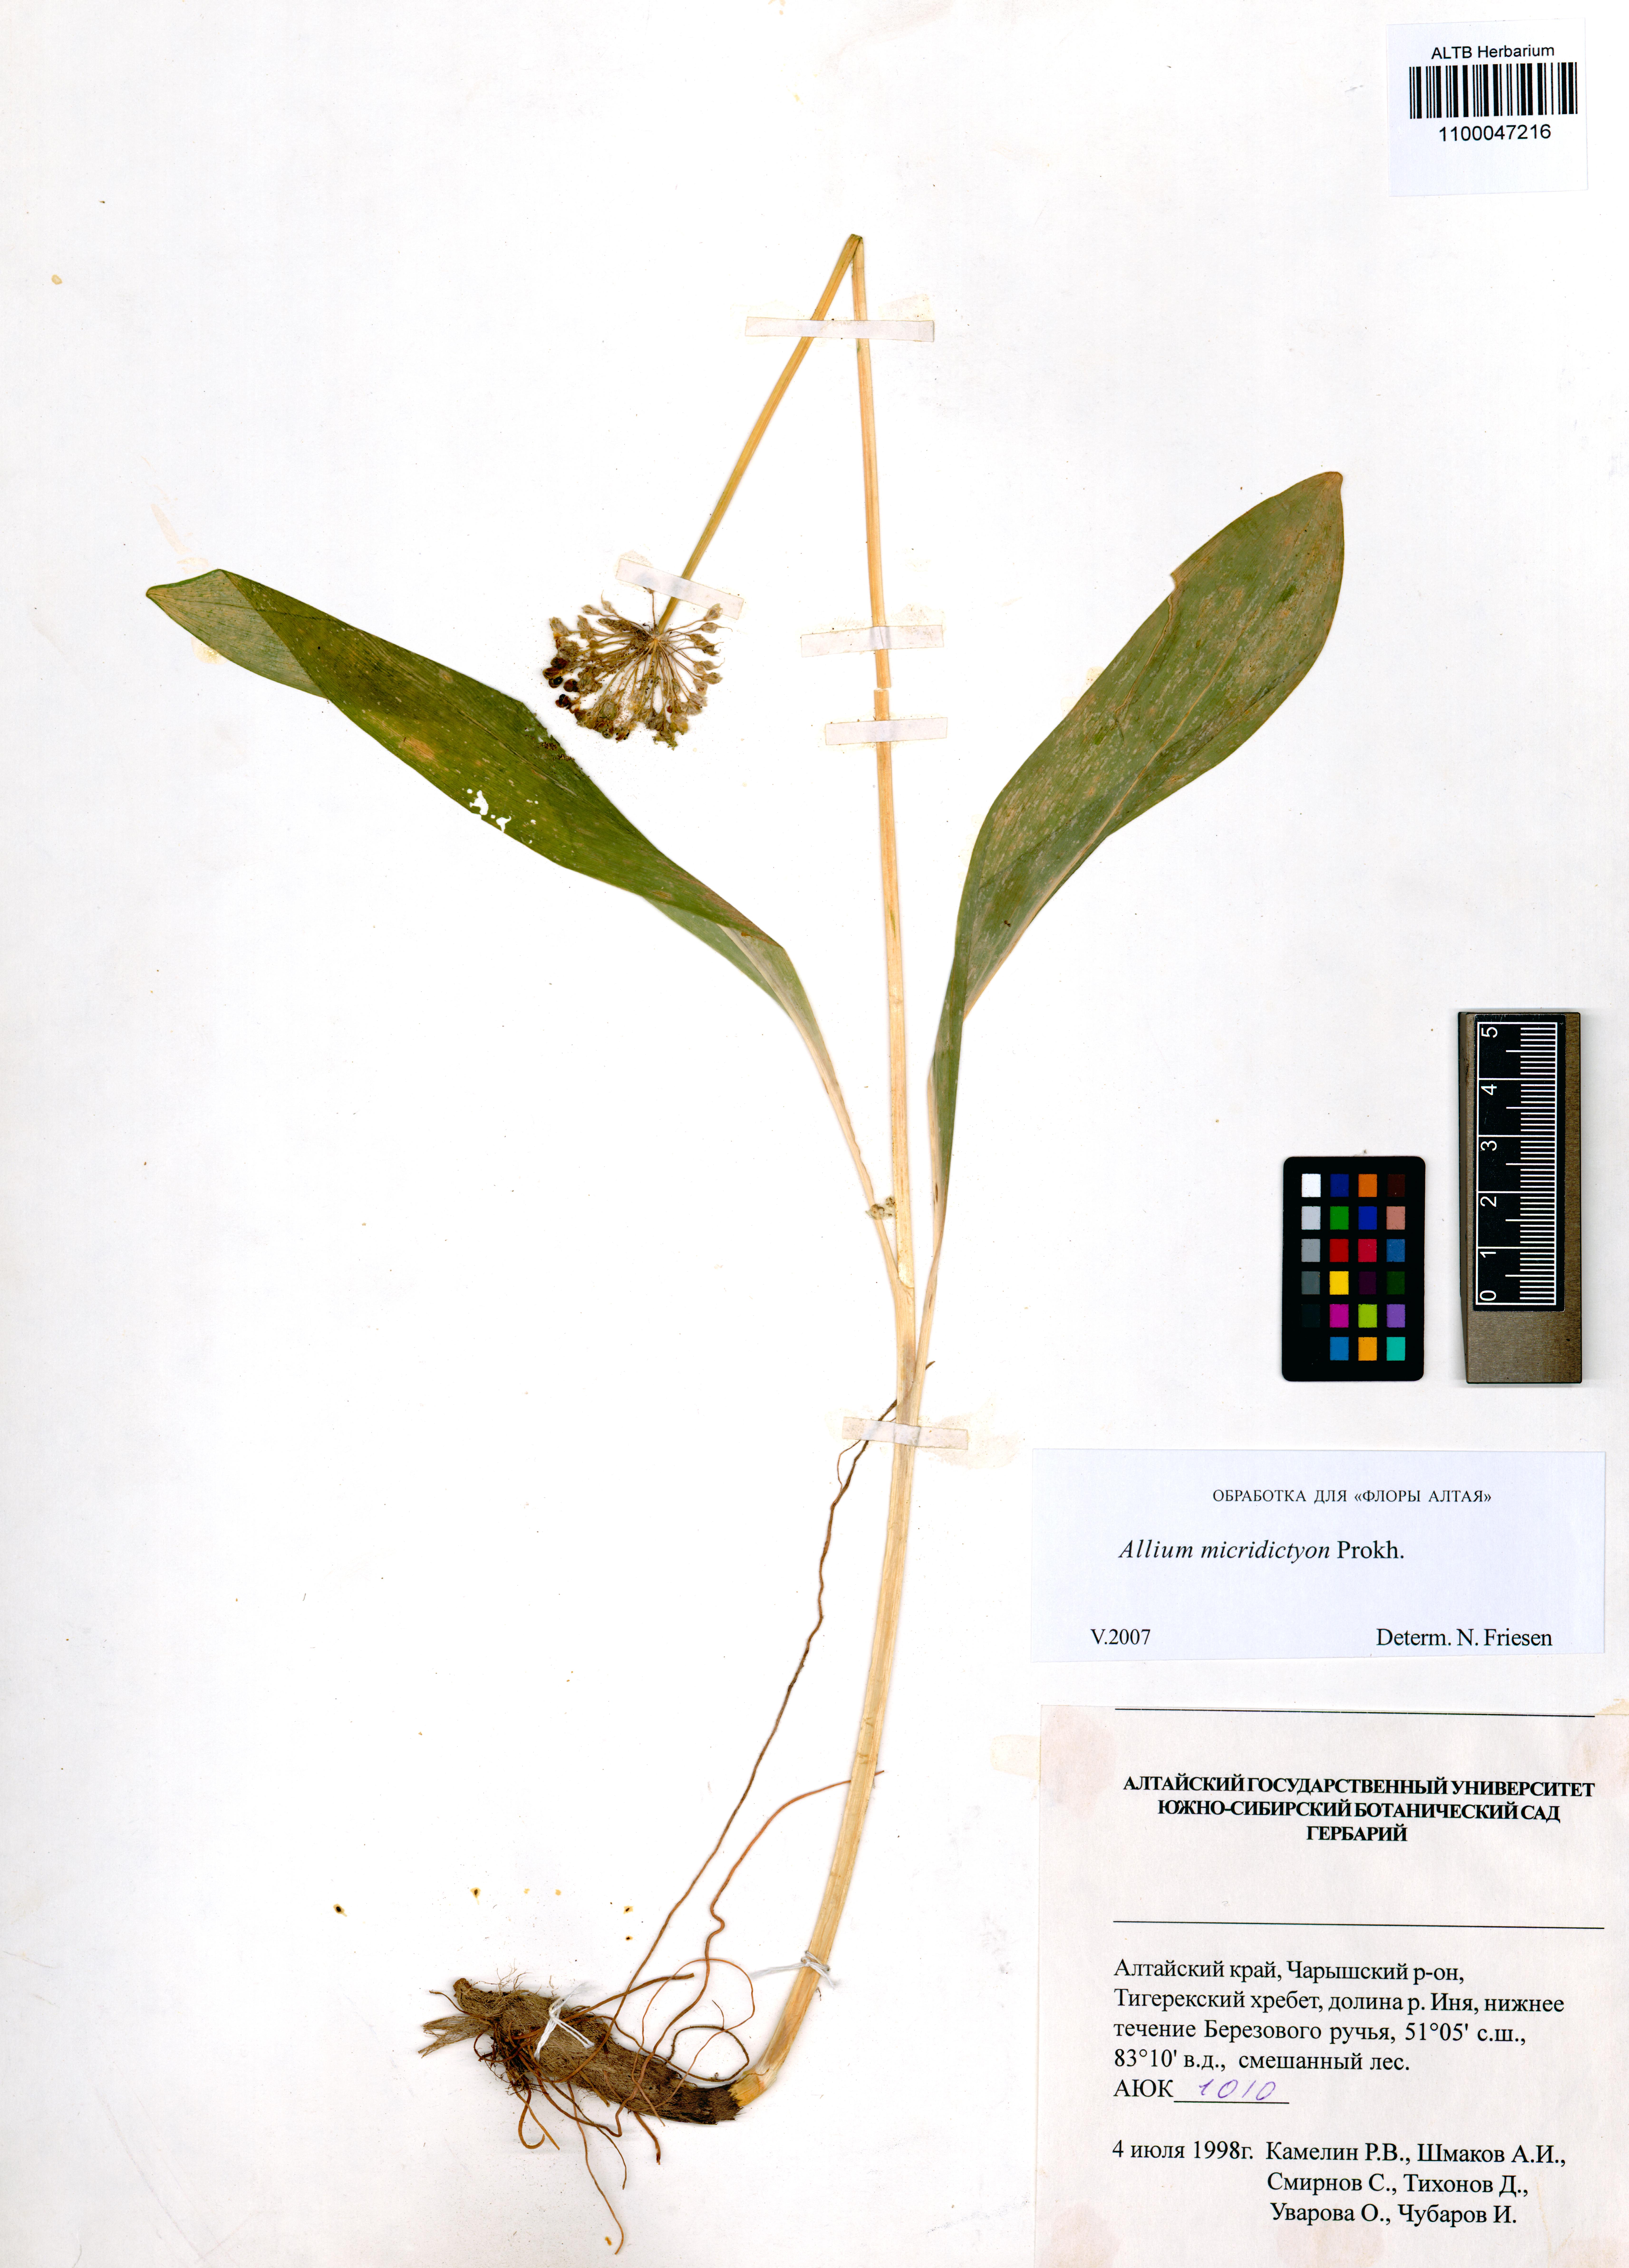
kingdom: Plantae
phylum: Tracheophyta
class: Liliopsida
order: Asparagales
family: Amaryllidaceae
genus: Allium
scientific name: Allium microdictyon
